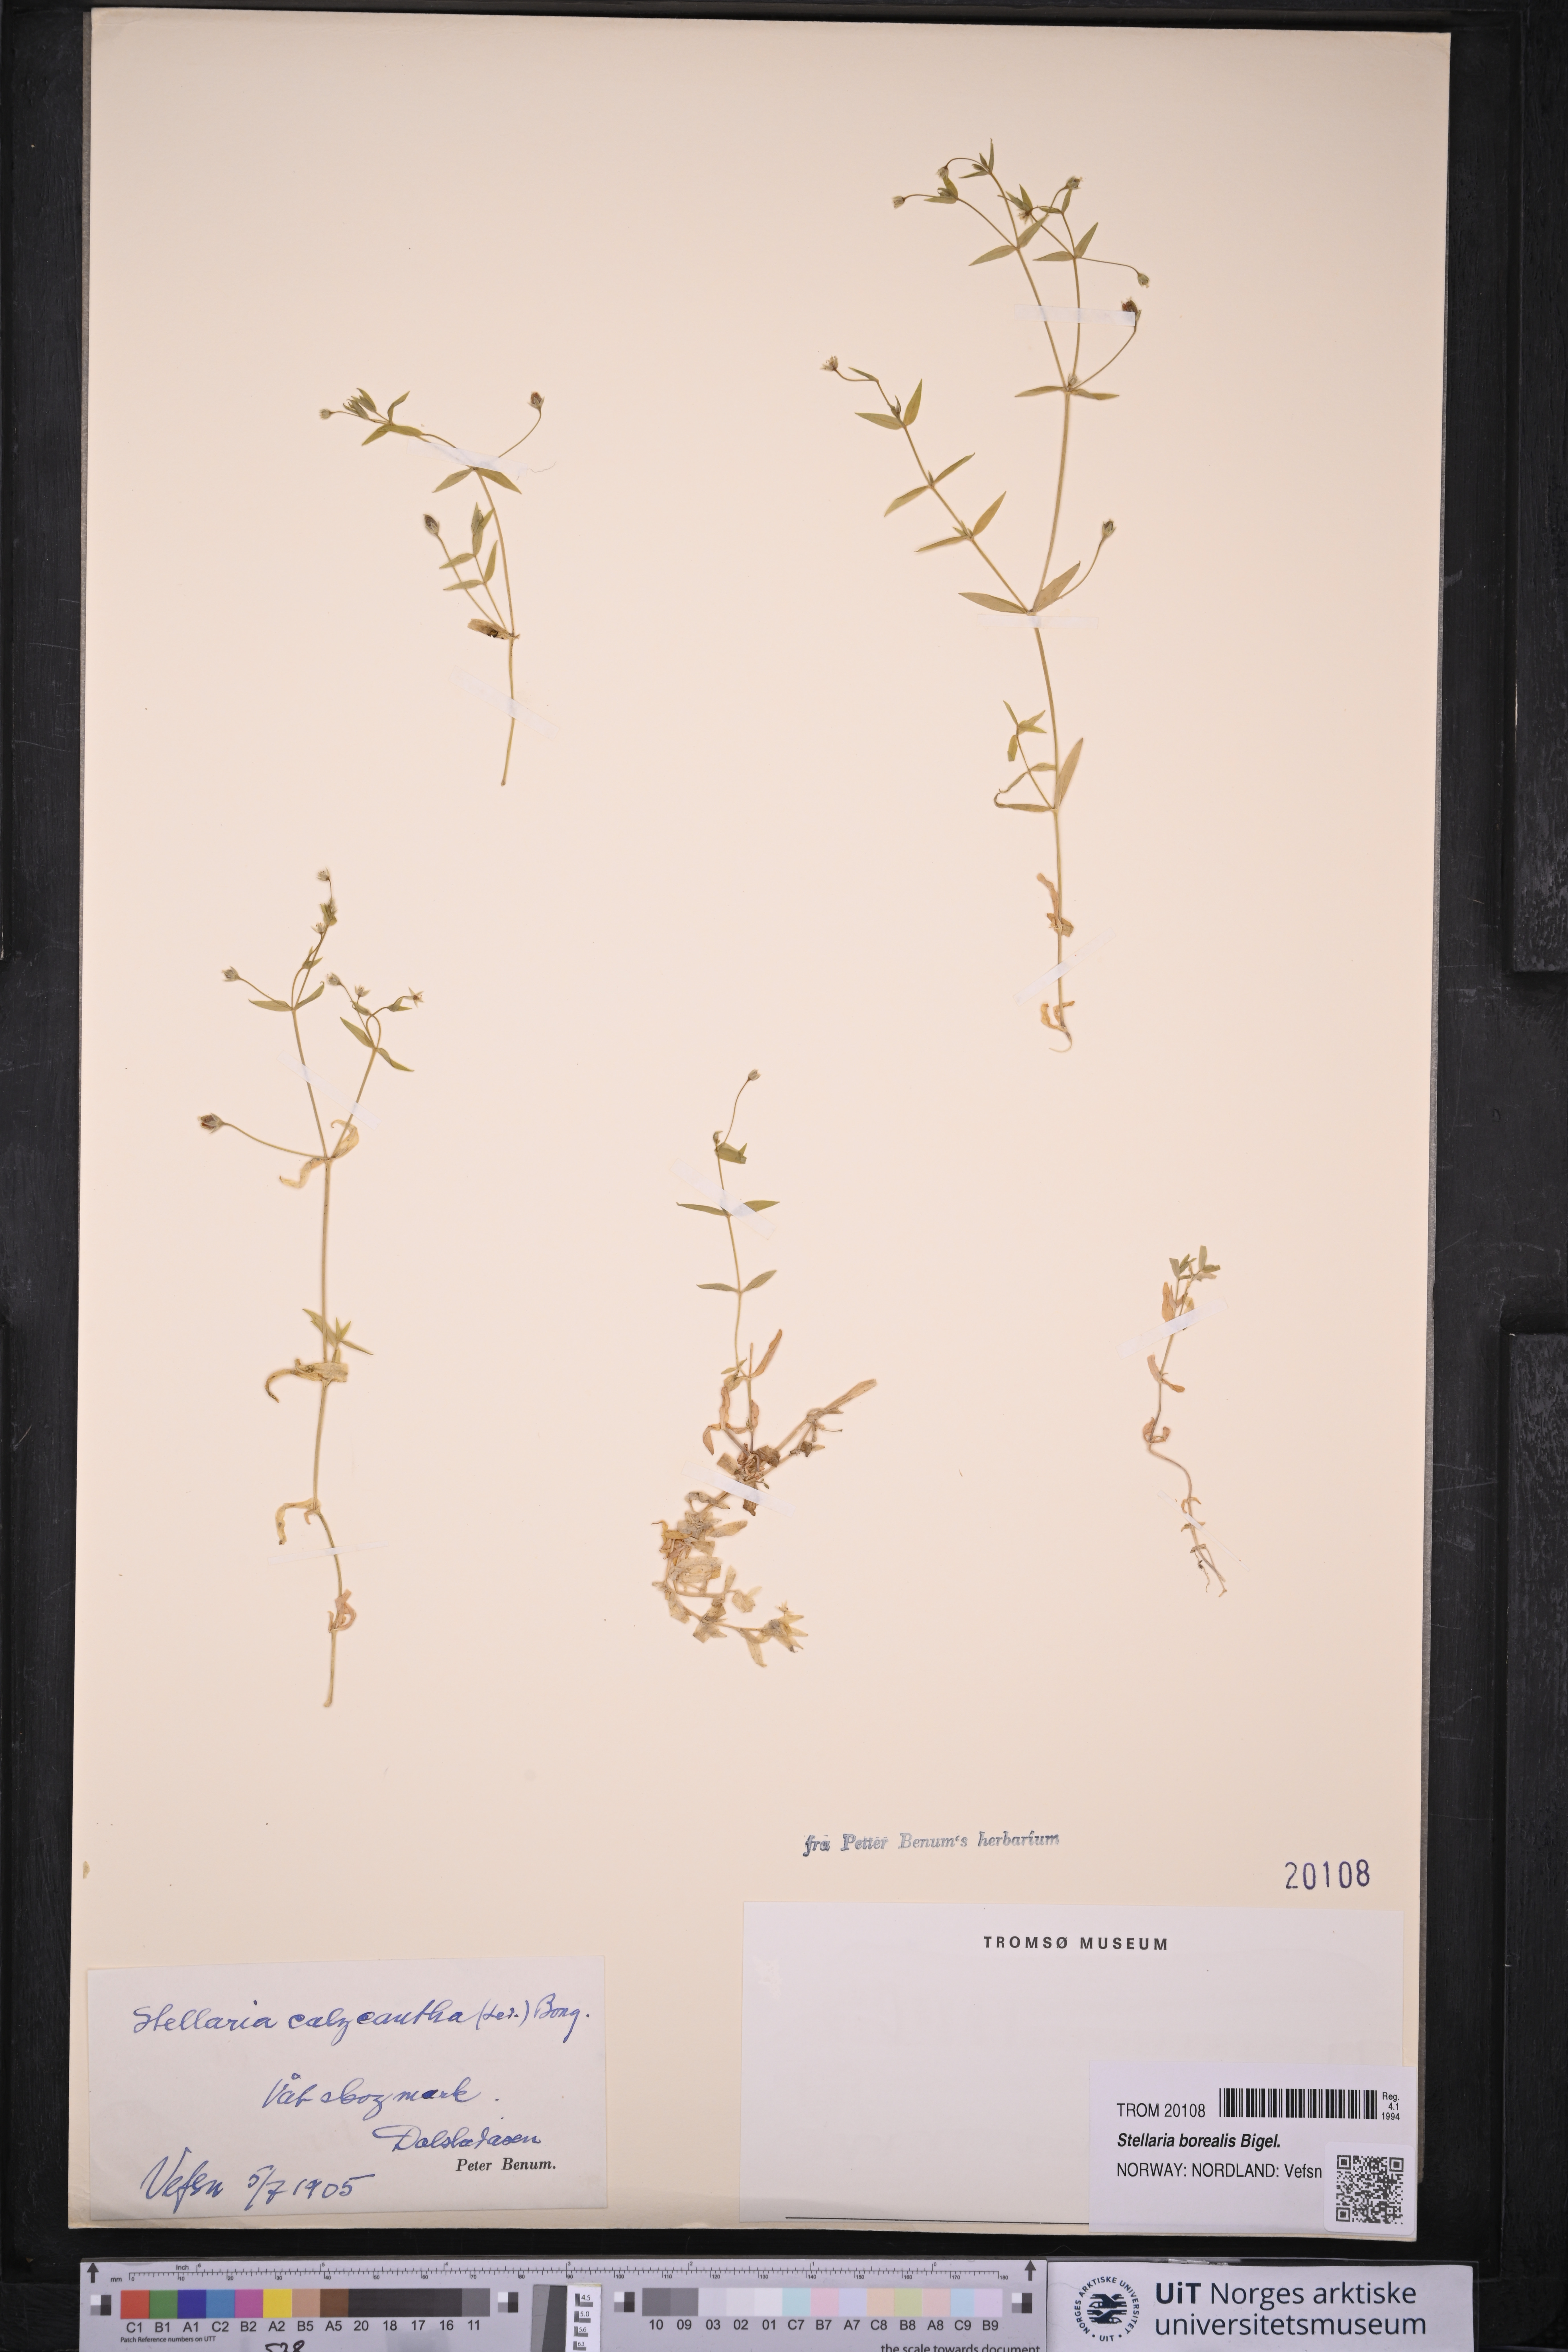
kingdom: Plantae
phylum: Tracheophyta
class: Magnoliopsida
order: Caryophyllales
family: Caryophyllaceae
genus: Stellaria
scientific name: Stellaria borealis
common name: Boreal starwort
